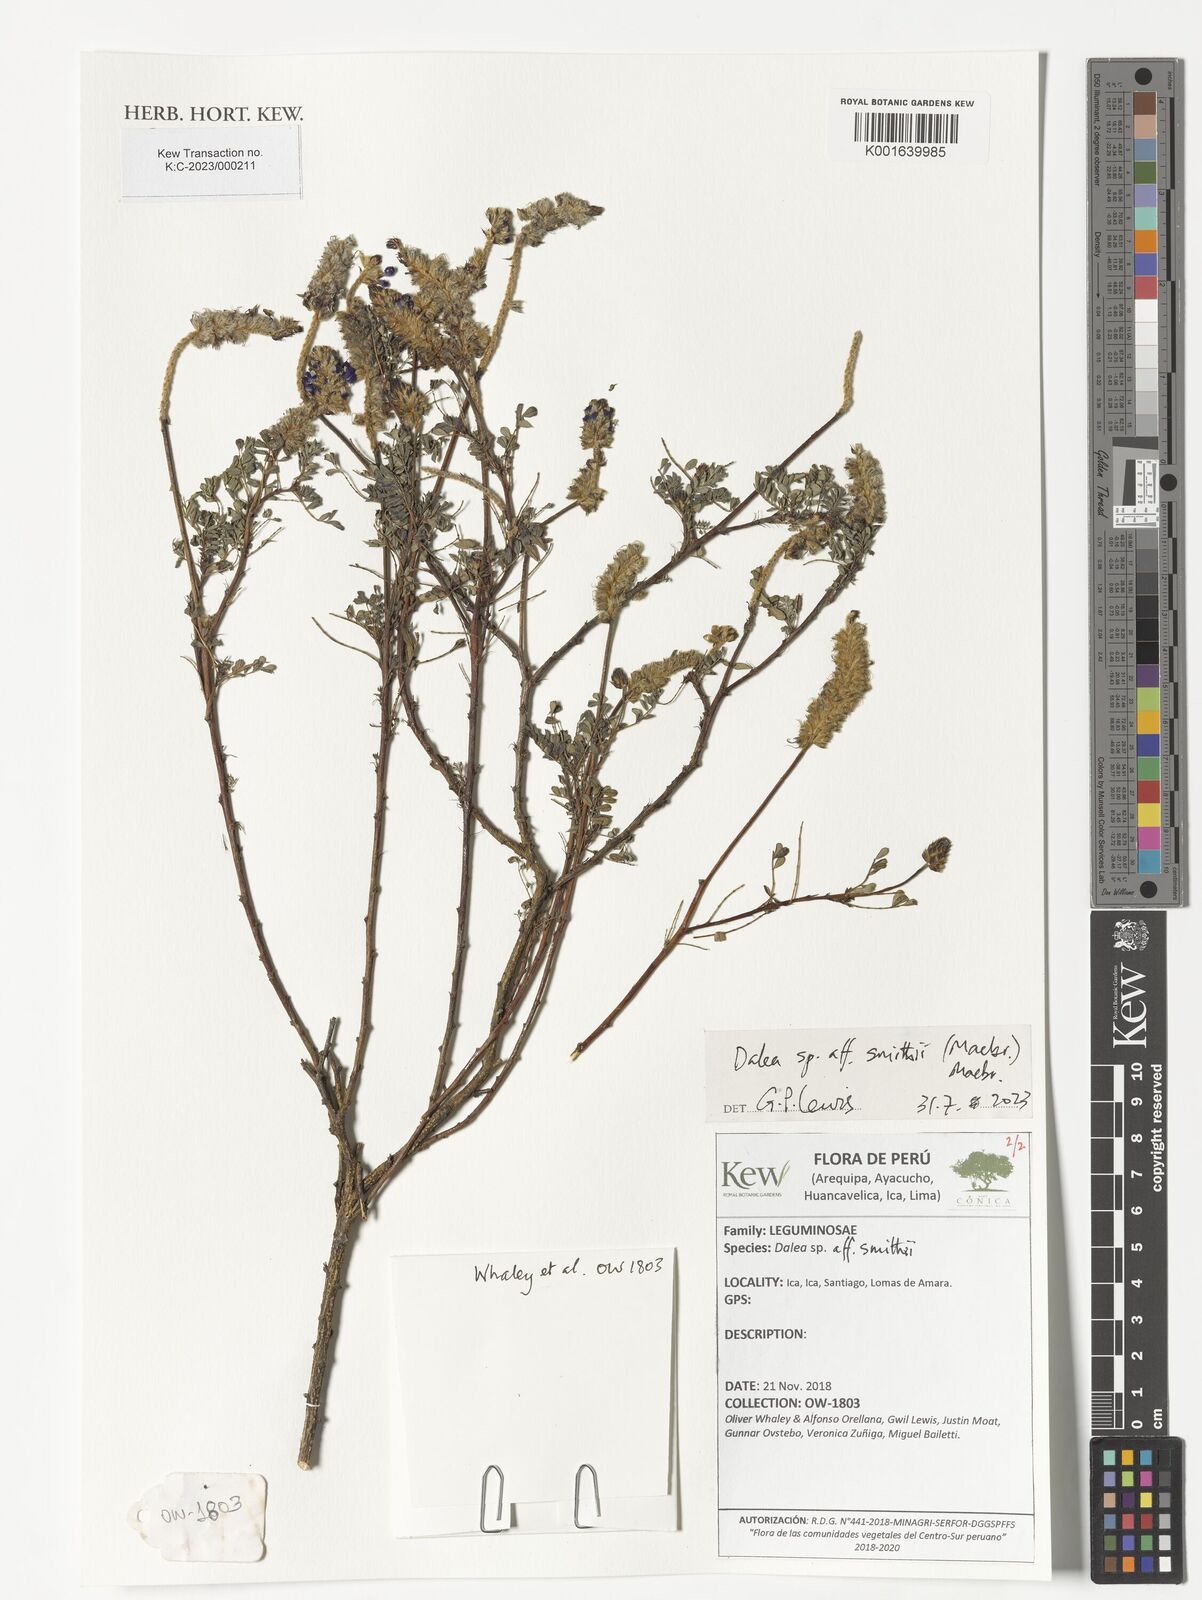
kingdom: Plantae
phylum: Tracheophyta
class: Magnoliopsida
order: Fabales
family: Fabaceae
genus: Dalea
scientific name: Dalea smithii
